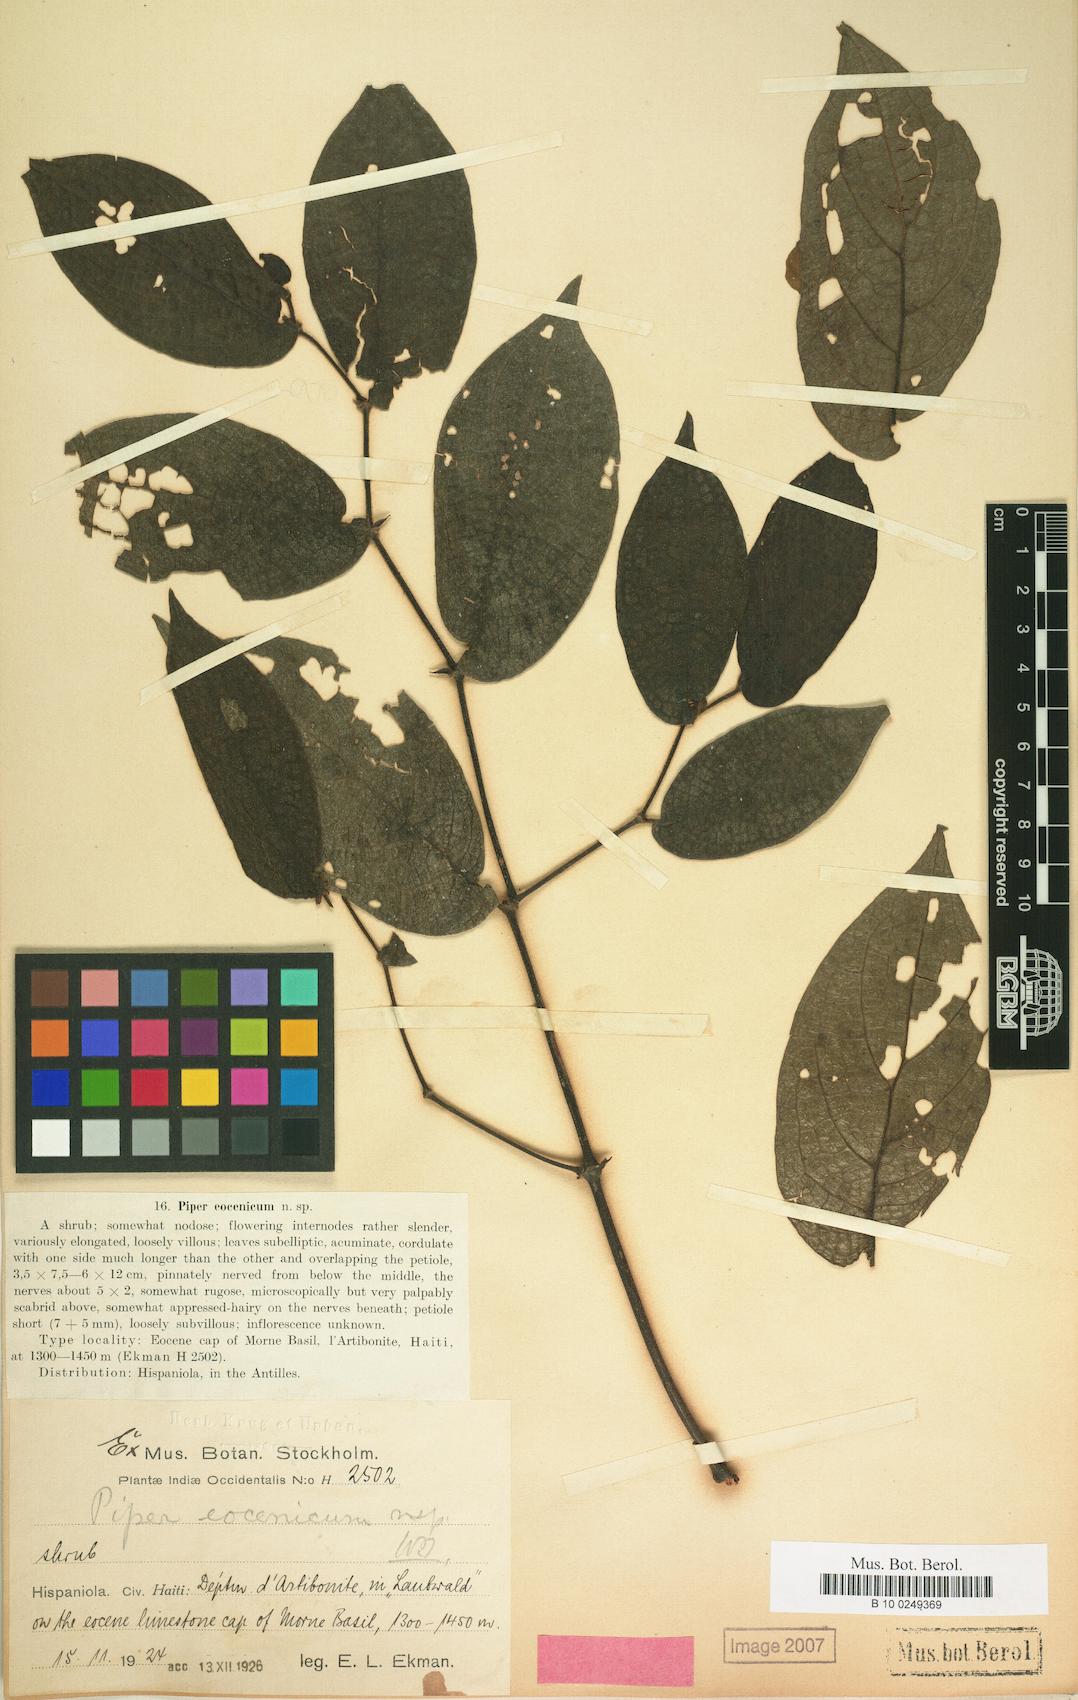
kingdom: Plantae
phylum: Tracheophyta
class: Magnoliopsida
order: Piperales
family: Piperaceae
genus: Piper
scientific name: Piper confusum
